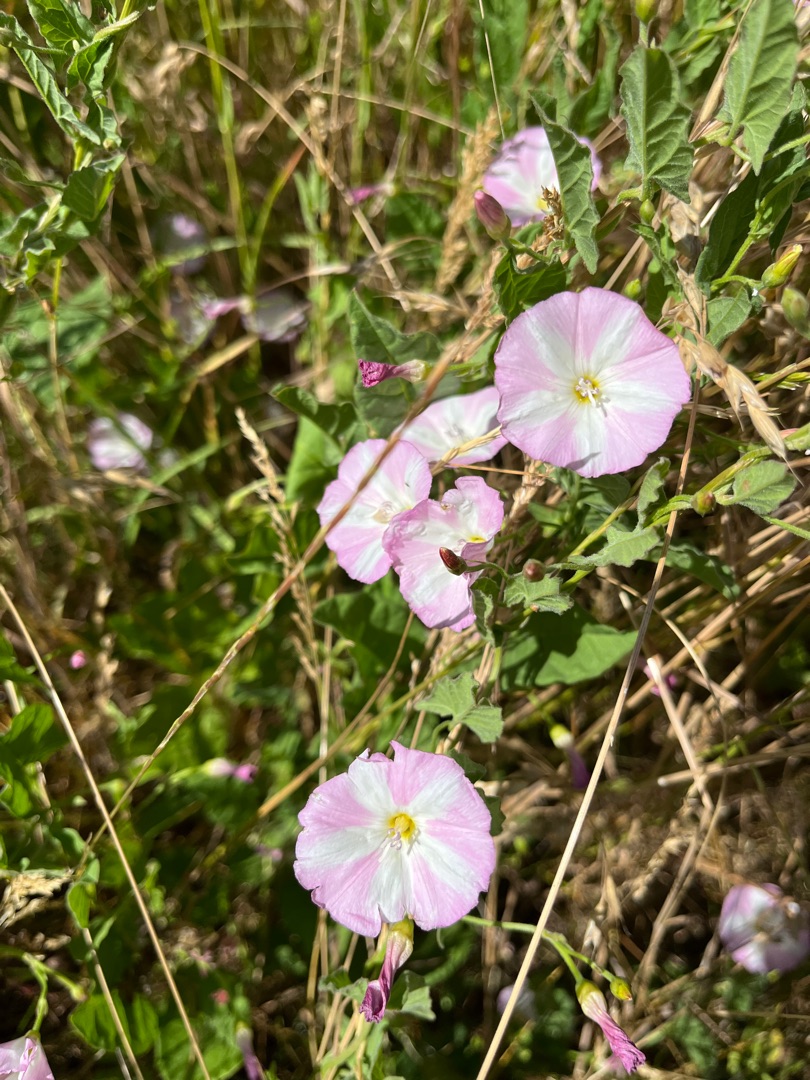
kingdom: Plantae
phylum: Tracheophyta
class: Magnoliopsida
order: Solanales
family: Convolvulaceae
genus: Convolvulus
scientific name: Convolvulus arvensis
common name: Ager-snerle
